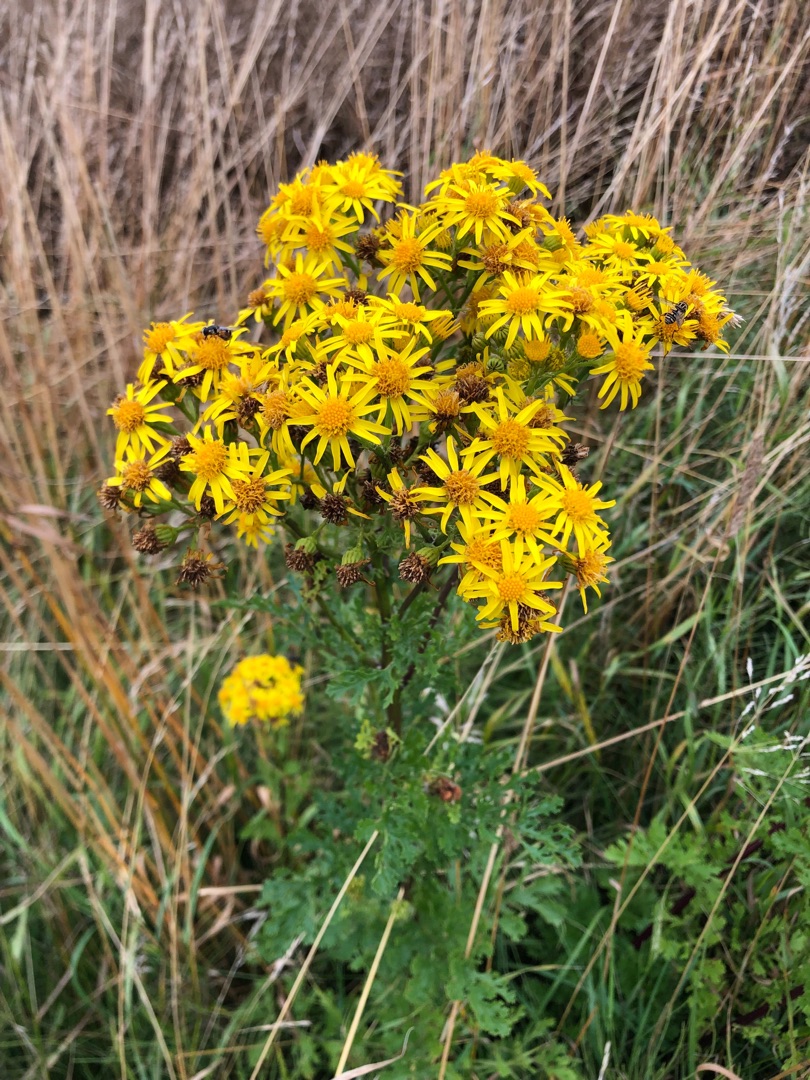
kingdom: Plantae
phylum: Tracheophyta
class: Magnoliopsida
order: Asterales
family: Asteraceae
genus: Jacobaea
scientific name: Jacobaea vulgaris
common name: Eng-brandbæger
